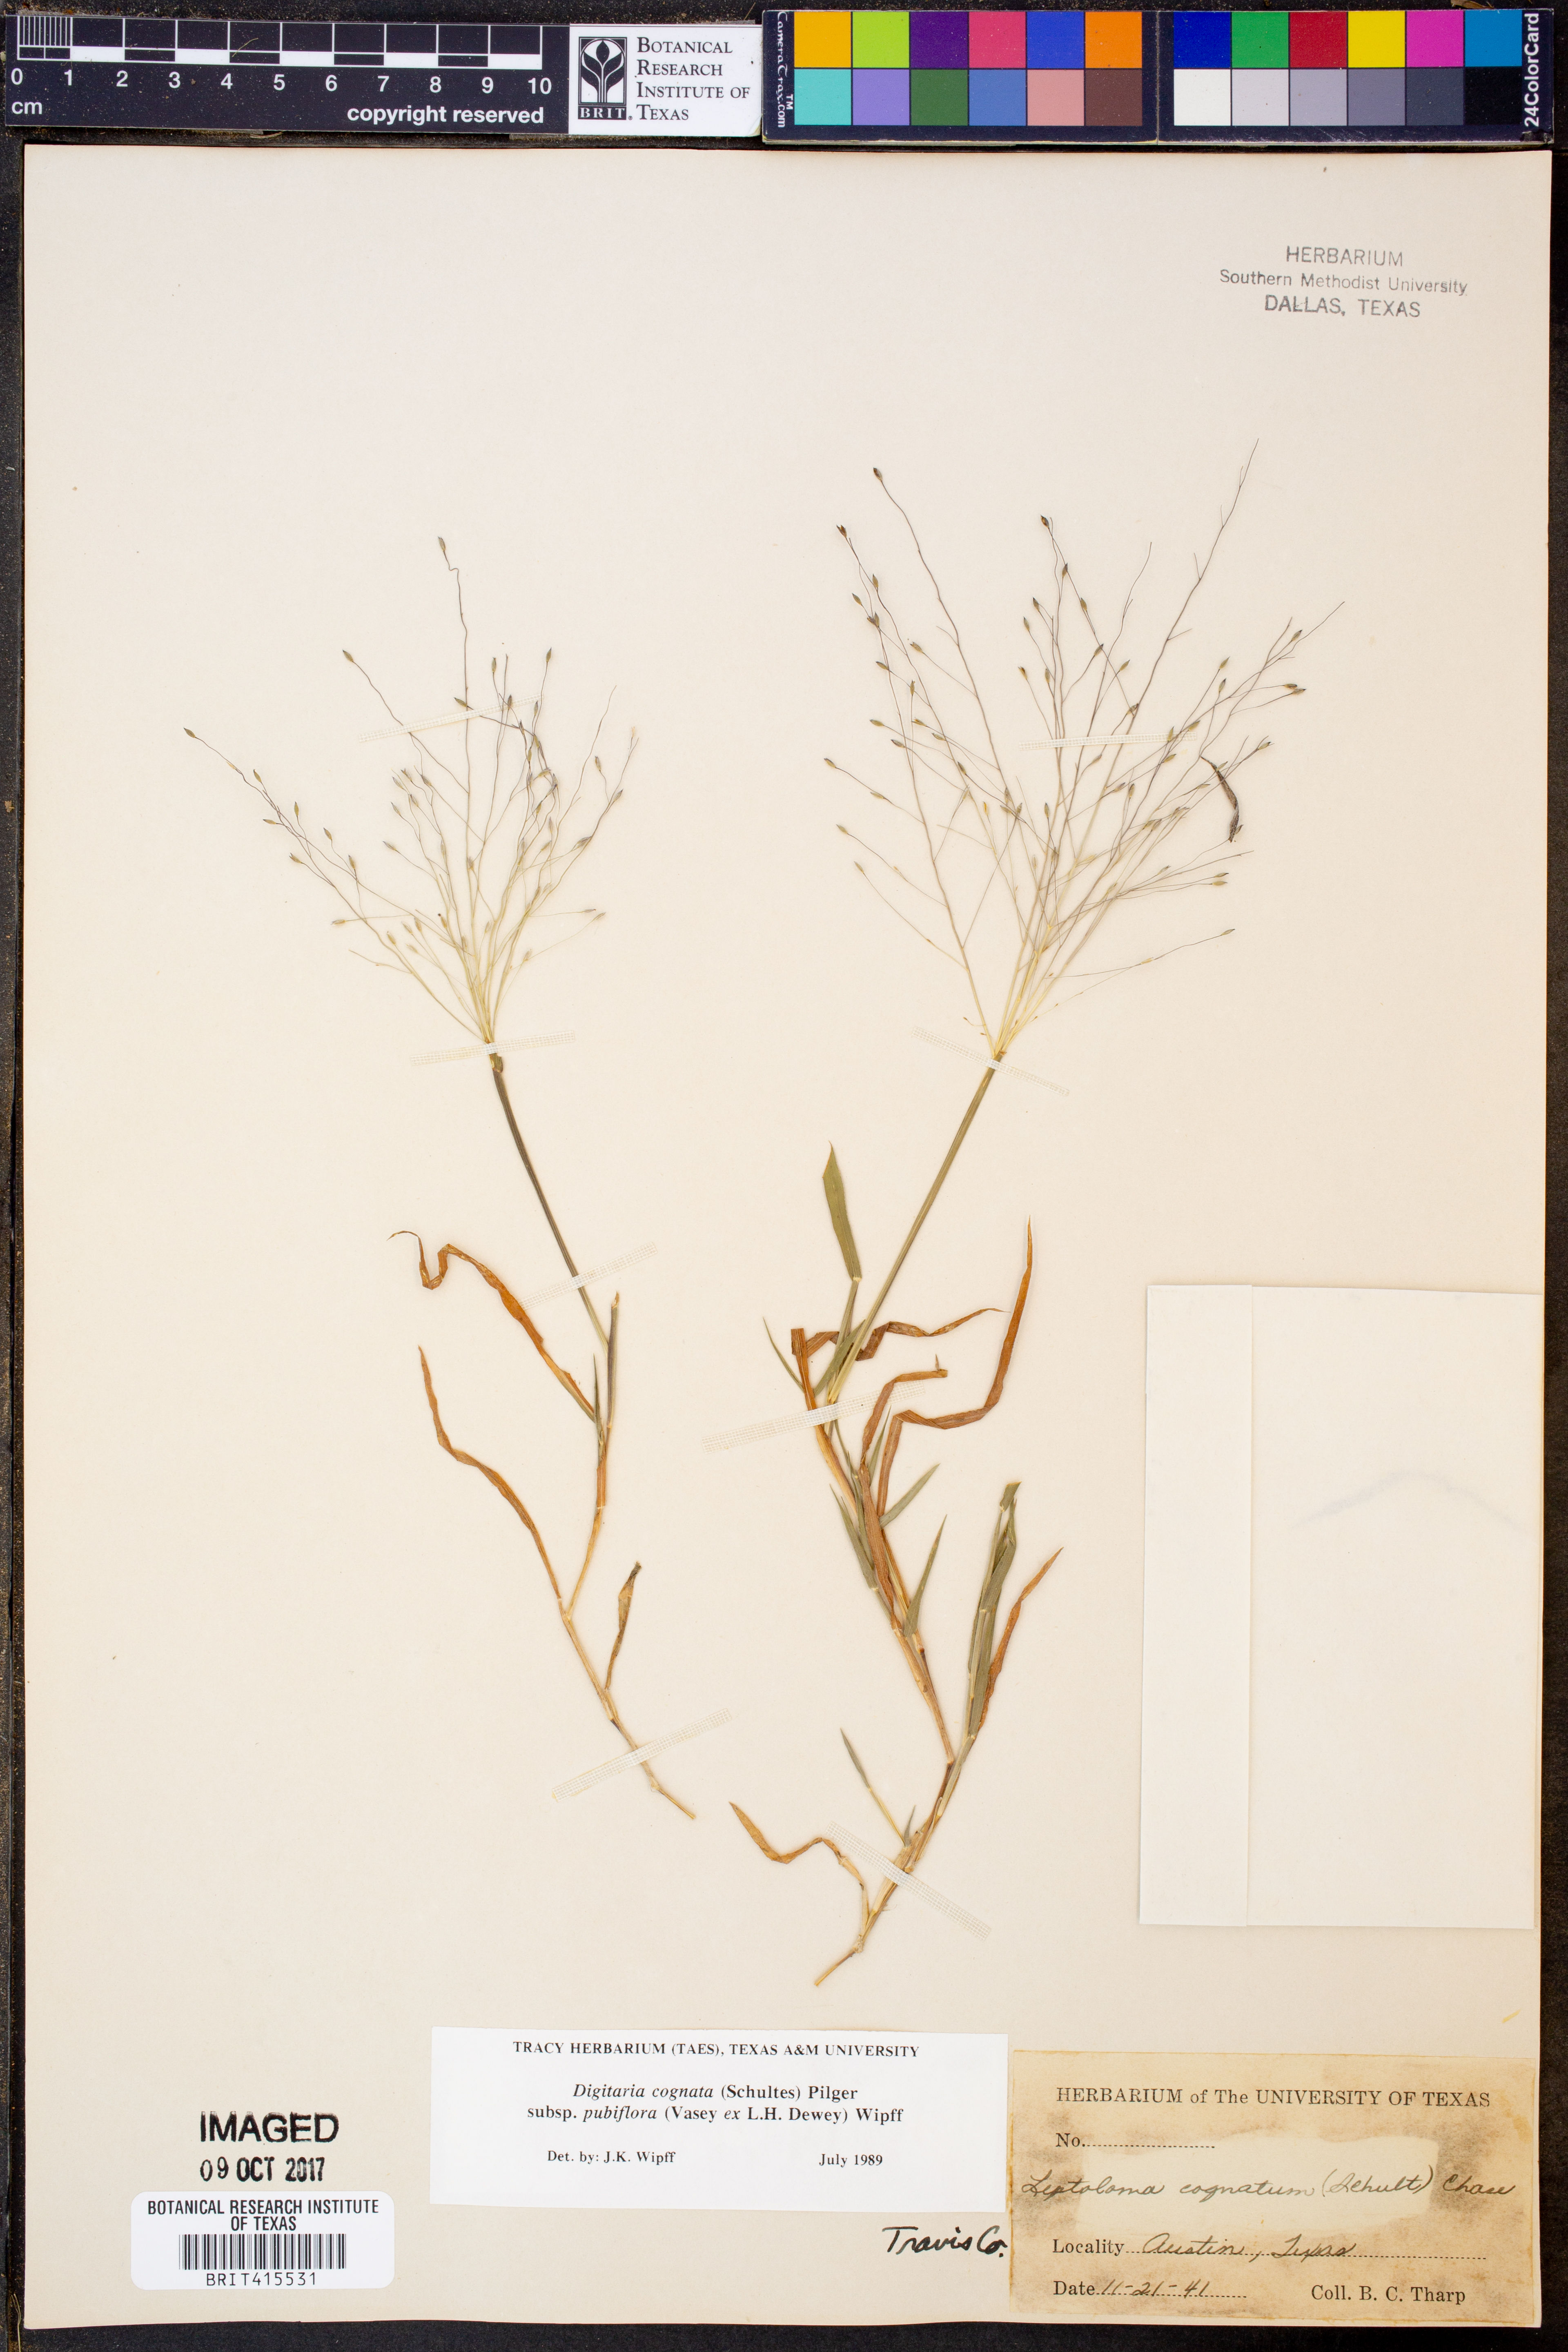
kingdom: Plantae
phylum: Tracheophyta
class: Liliopsida
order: Poales
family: Poaceae
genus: Digitaria
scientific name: Digitaria cognata
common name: Fall witchgrass
